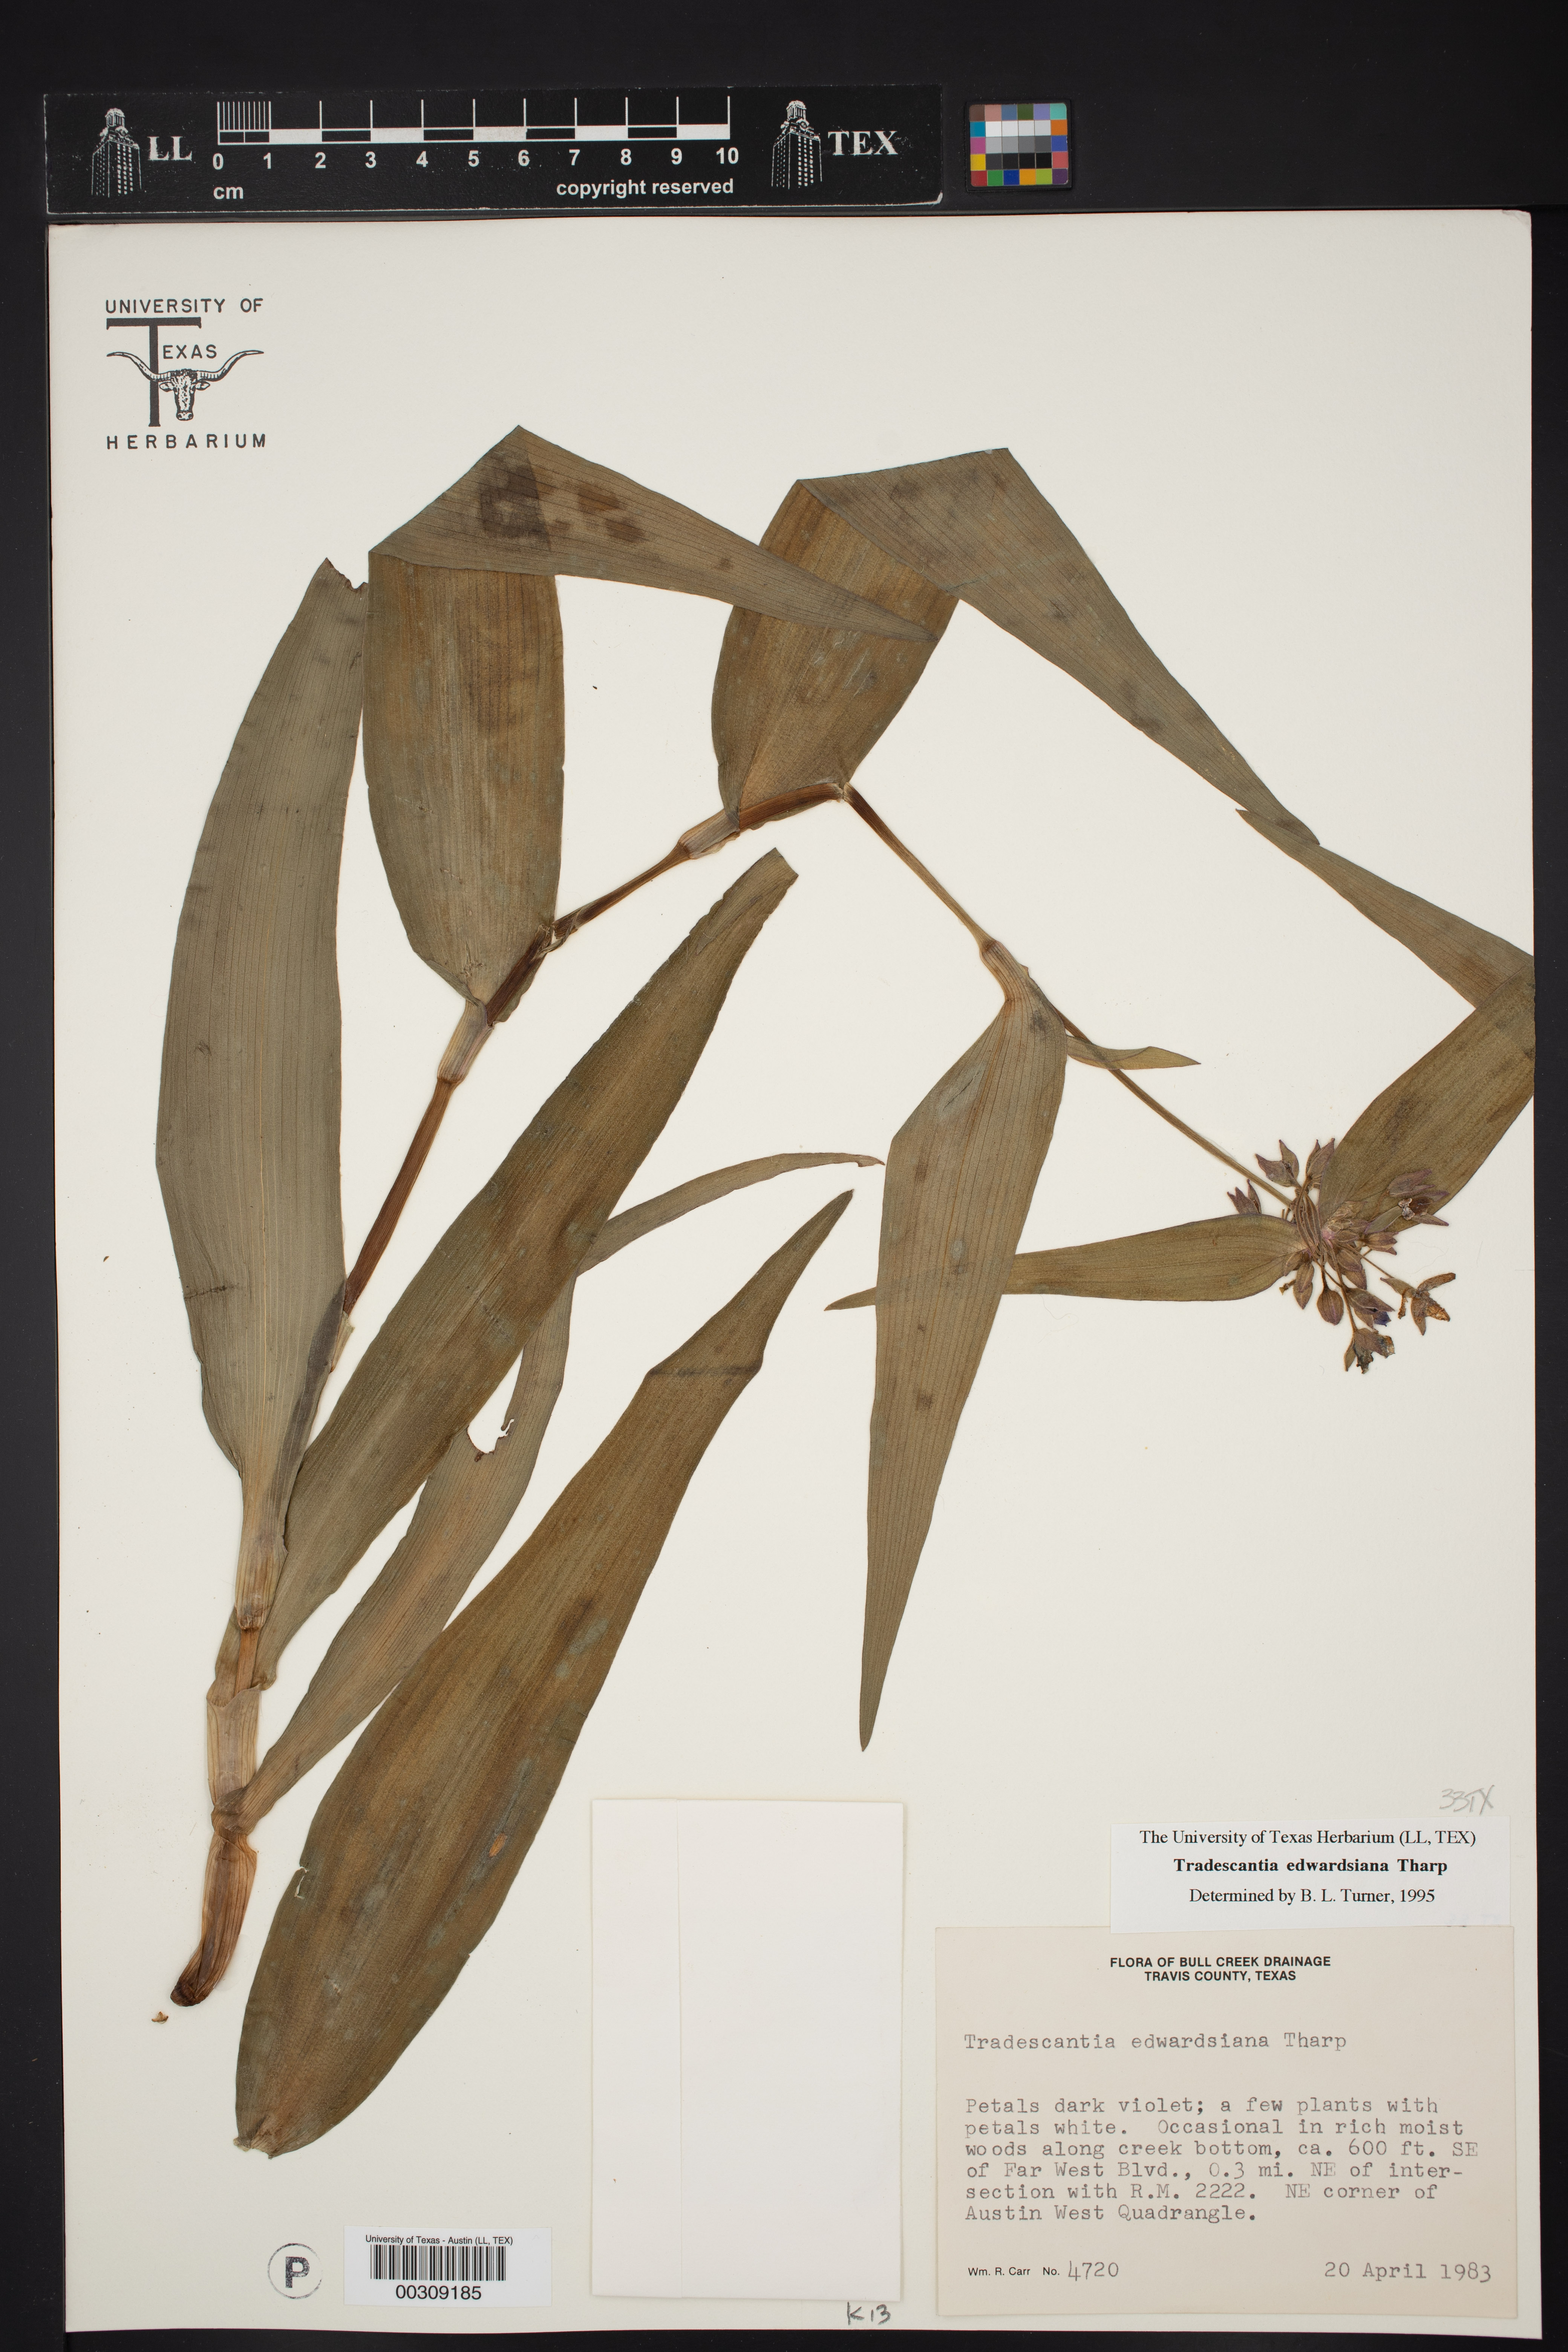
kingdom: Plantae
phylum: Tracheophyta
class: Liliopsida
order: Commelinales
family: Commelinaceae
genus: Tradescantia
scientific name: Tradescantia edwardsiana
